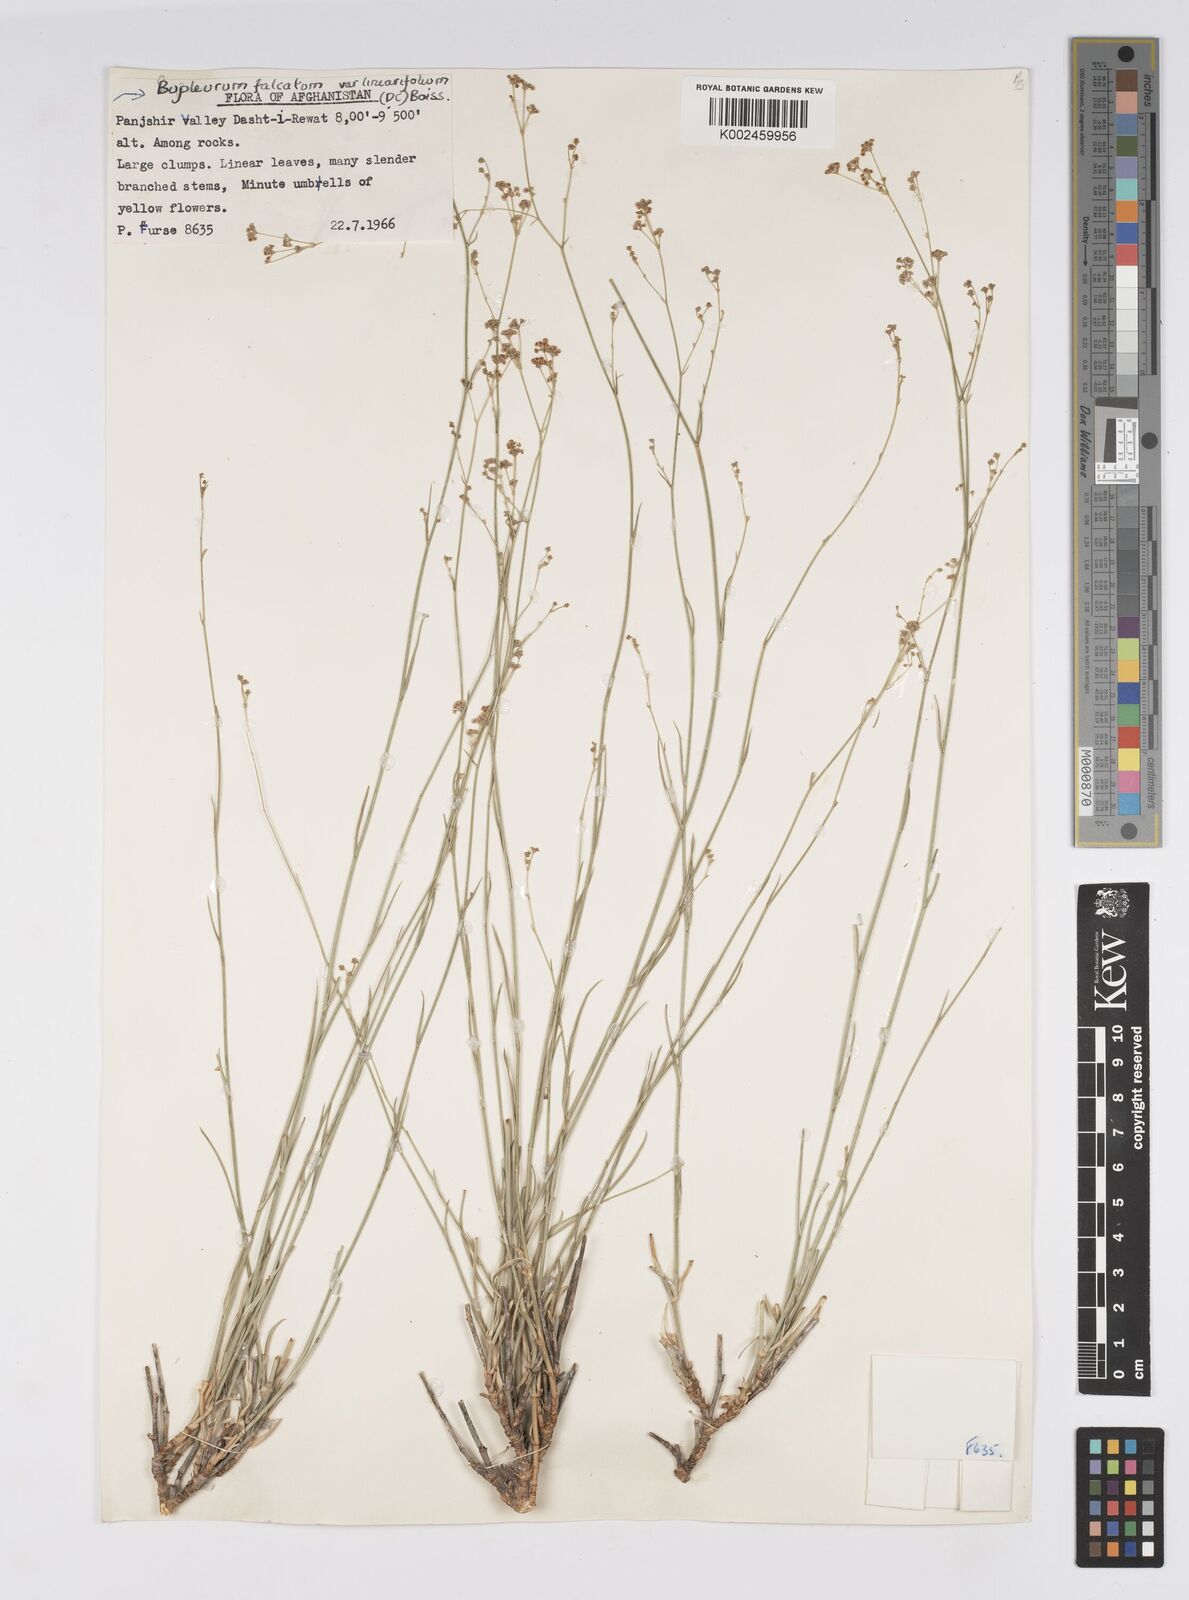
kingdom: Plantae
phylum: Tracheophyta
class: Magnoliopsida
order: Apiales
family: Apiaceae
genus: Bupleurum
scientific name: Bupleurum falcatum
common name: Sickle-leaved hare's-ear
